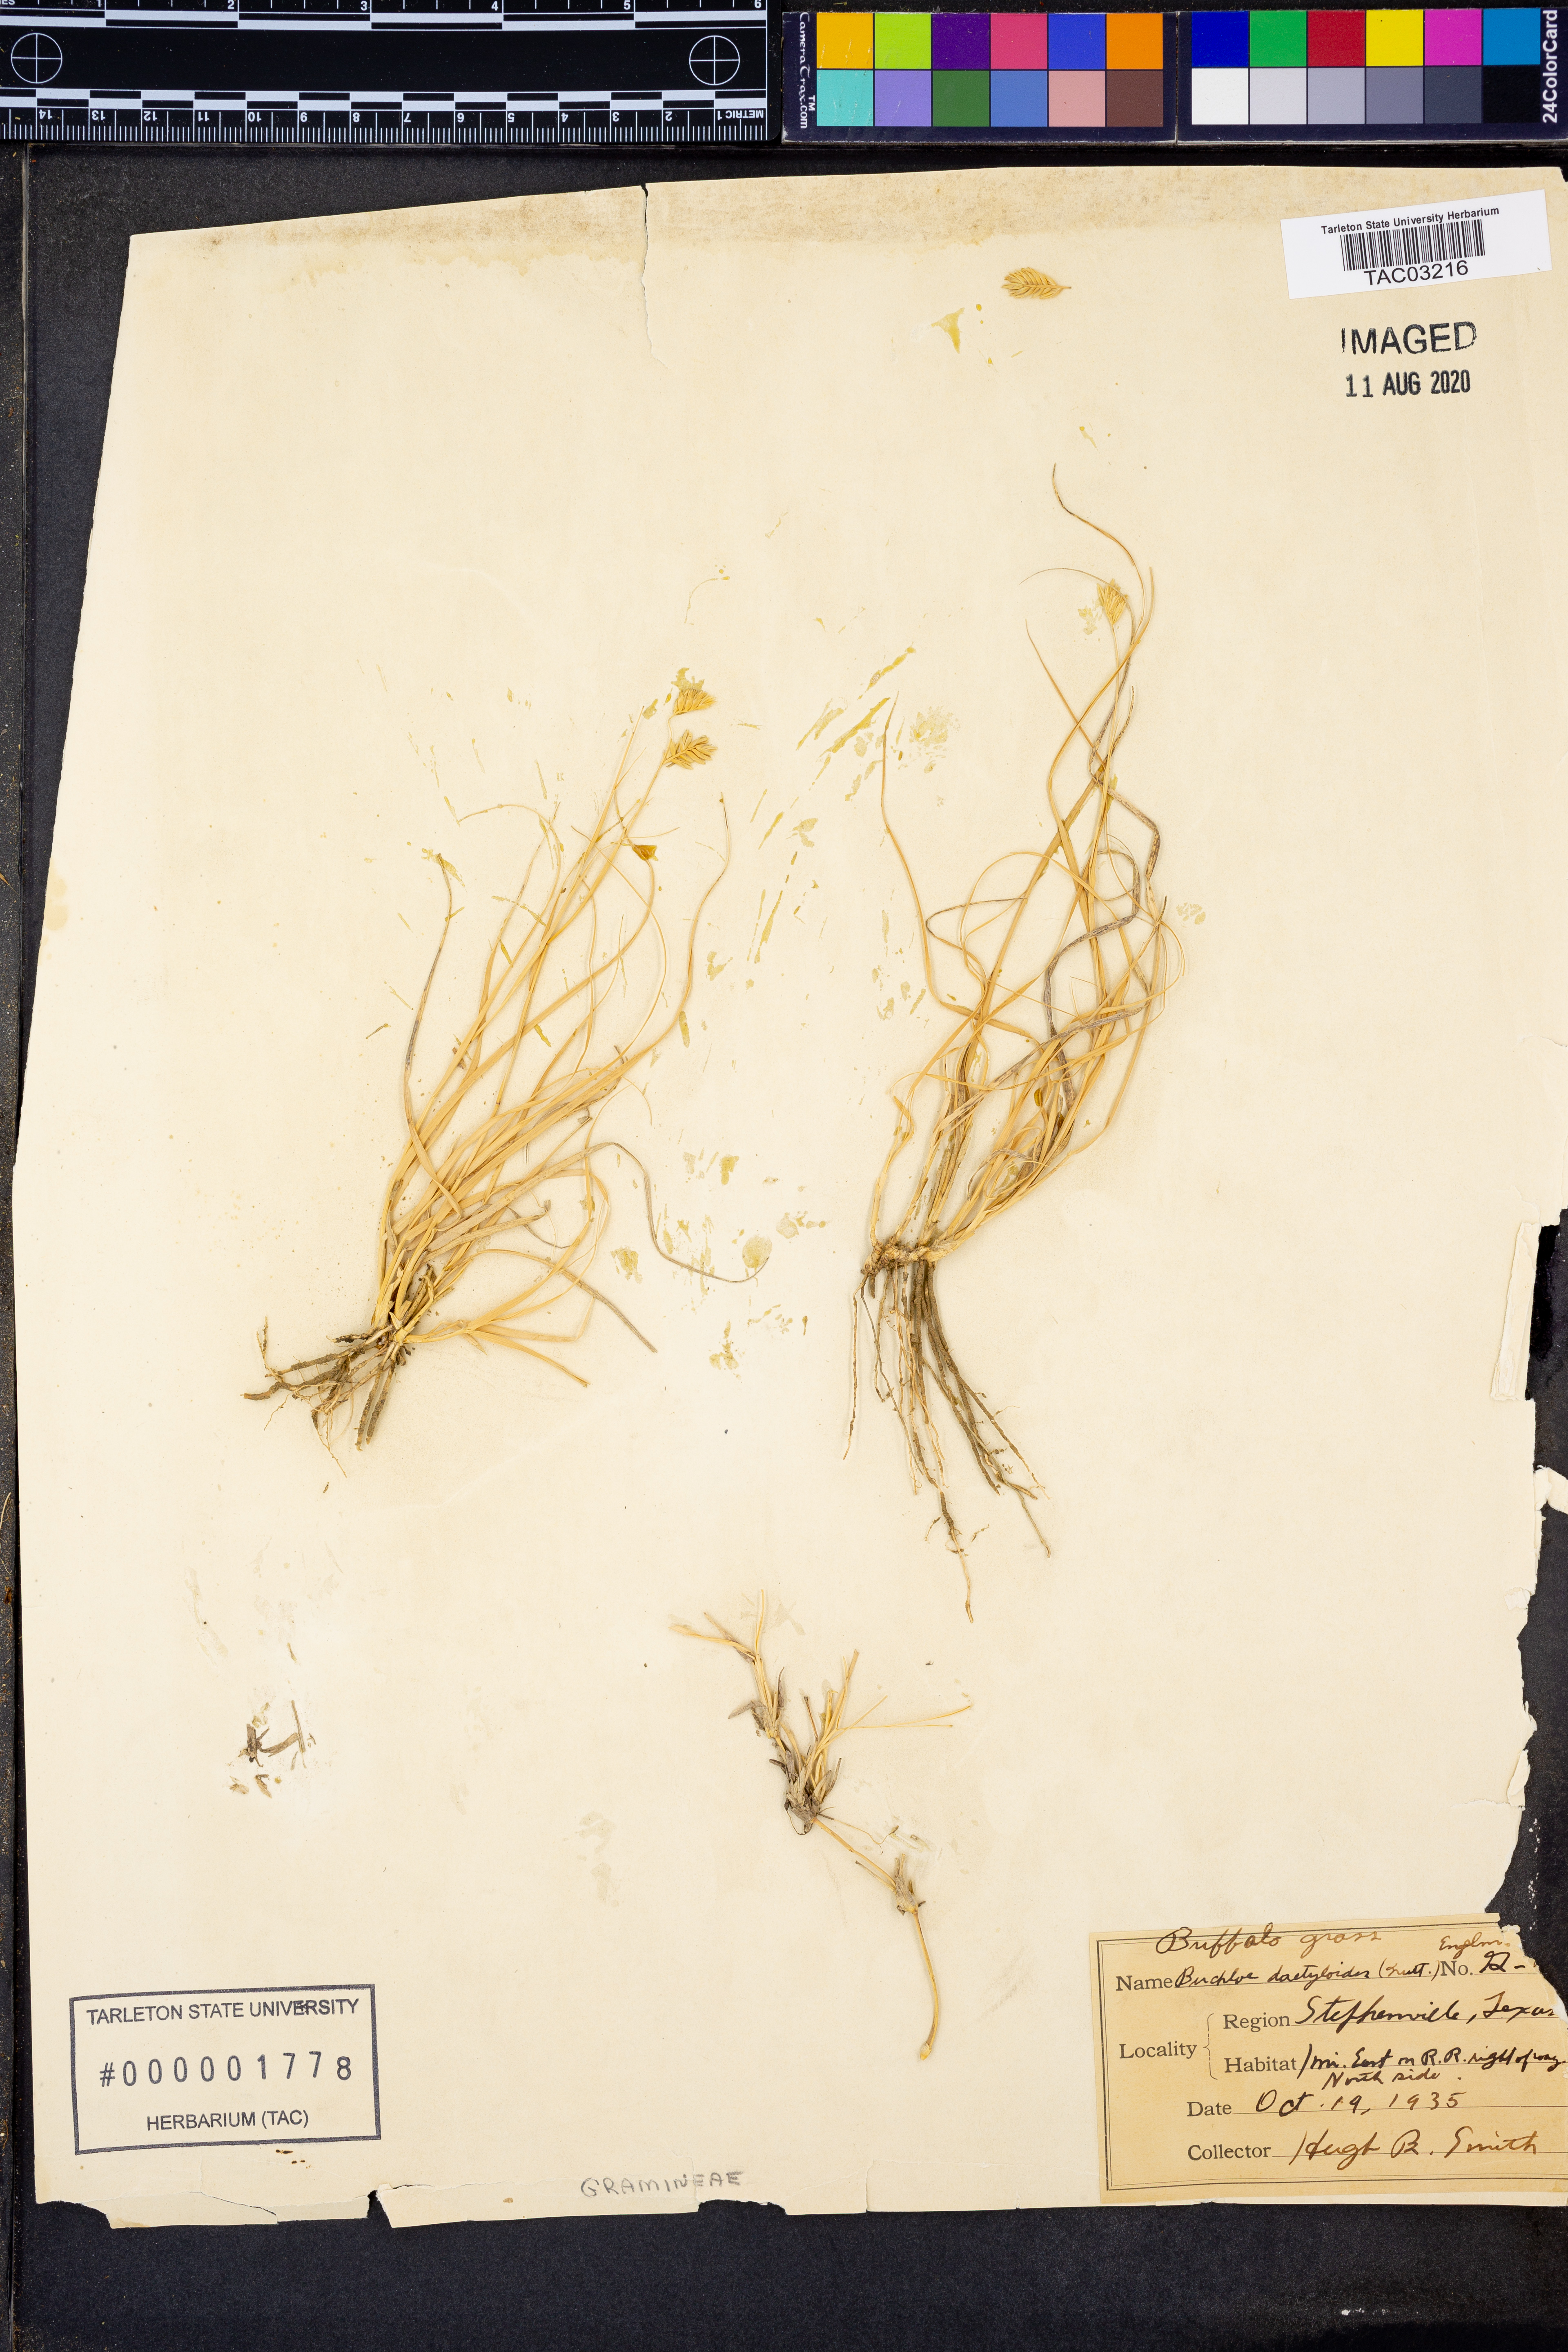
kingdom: Plantae
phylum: Tracheophyta
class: Liliopsida
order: Poales
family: Poaceae
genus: Bouteloua
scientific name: Bouteloua dactyloides
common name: Buffalo grass
